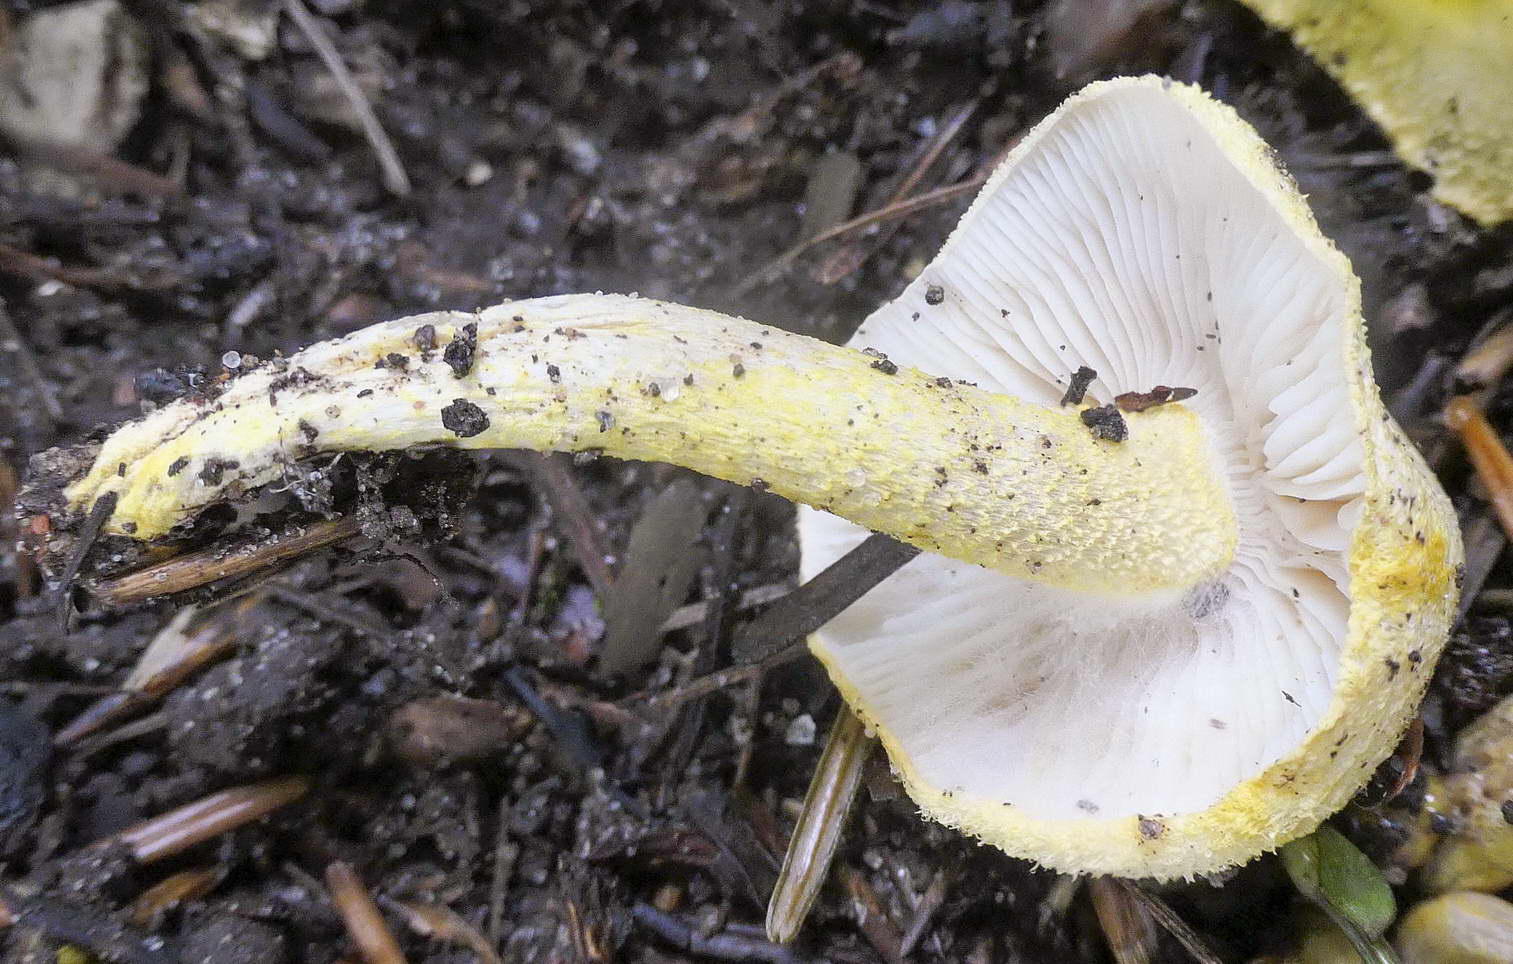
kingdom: Fungi
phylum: Basidiomycota
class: Agaricomycetes
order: Agaricales
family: Hygrophoraceae
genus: Hygrophorus
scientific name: Hygrophorus chrysodon
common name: gulfnugget sneglehat
